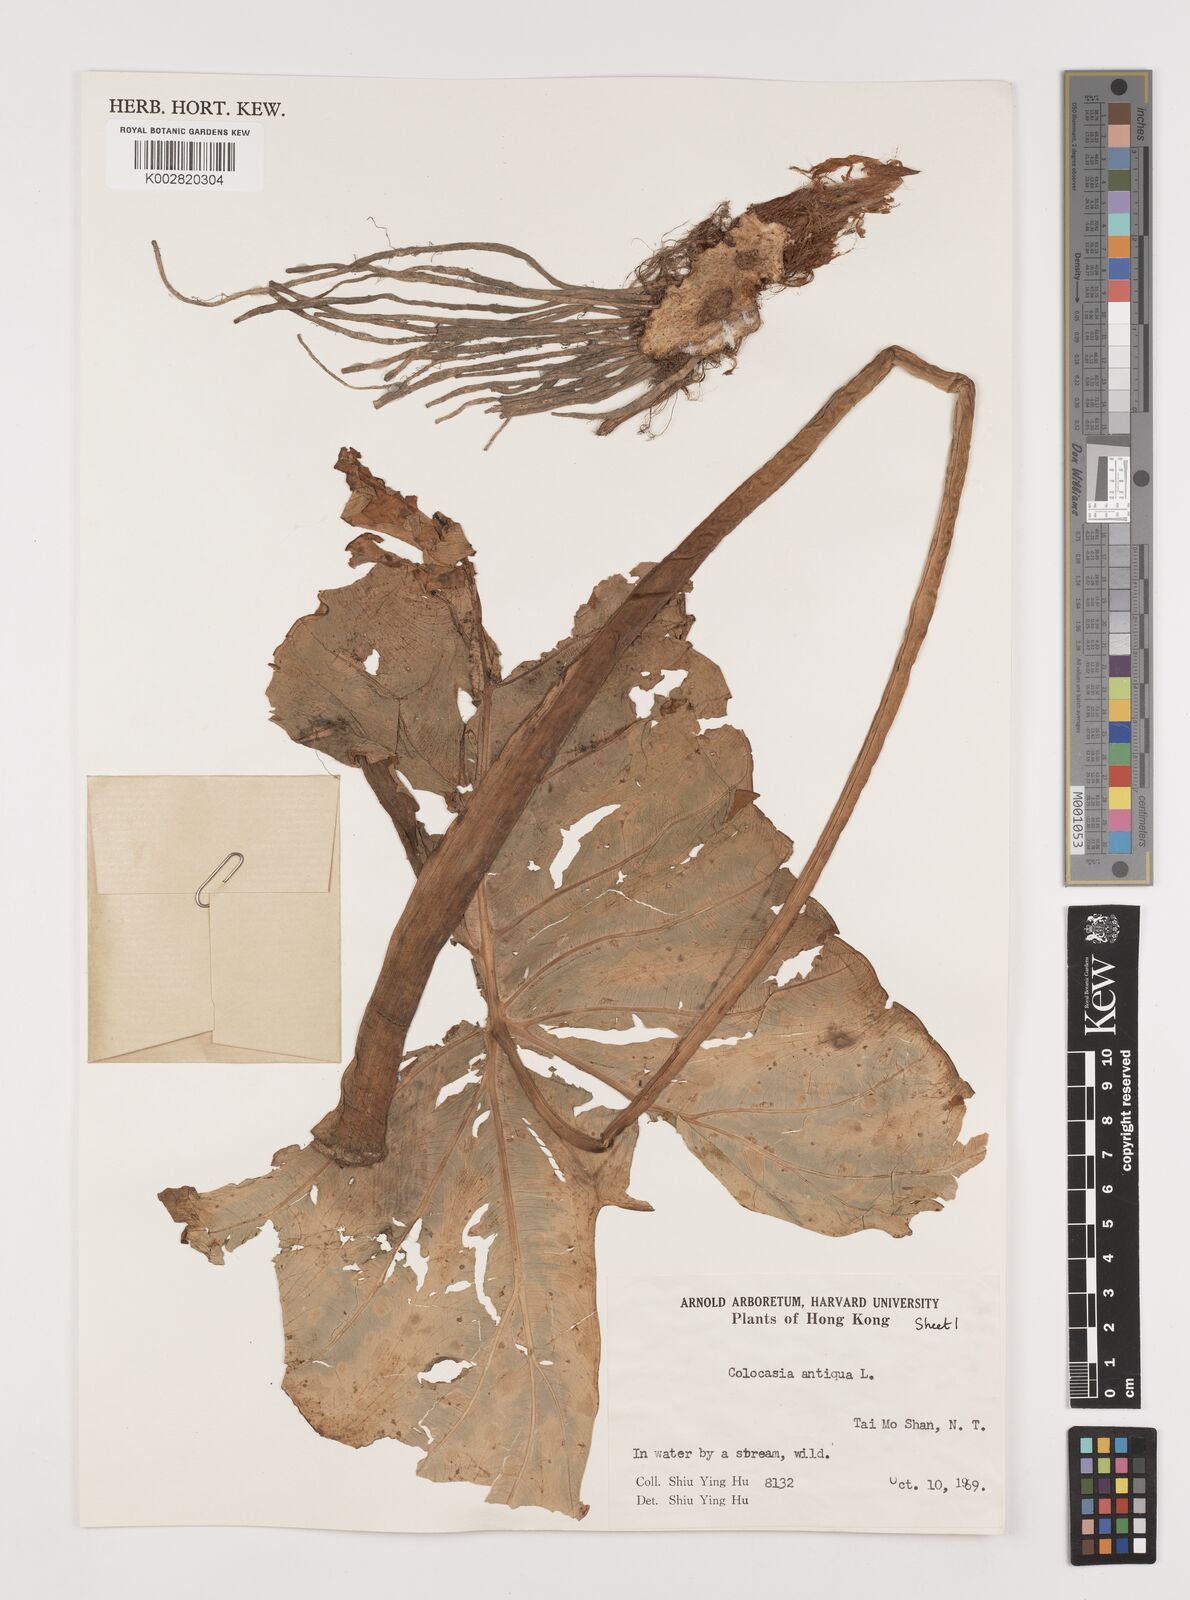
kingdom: Plantae
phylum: Tracheophyta
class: Liliopsida
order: Alismatales
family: Araceae
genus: Colocasia
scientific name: Colocasia esculenta
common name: Taro
